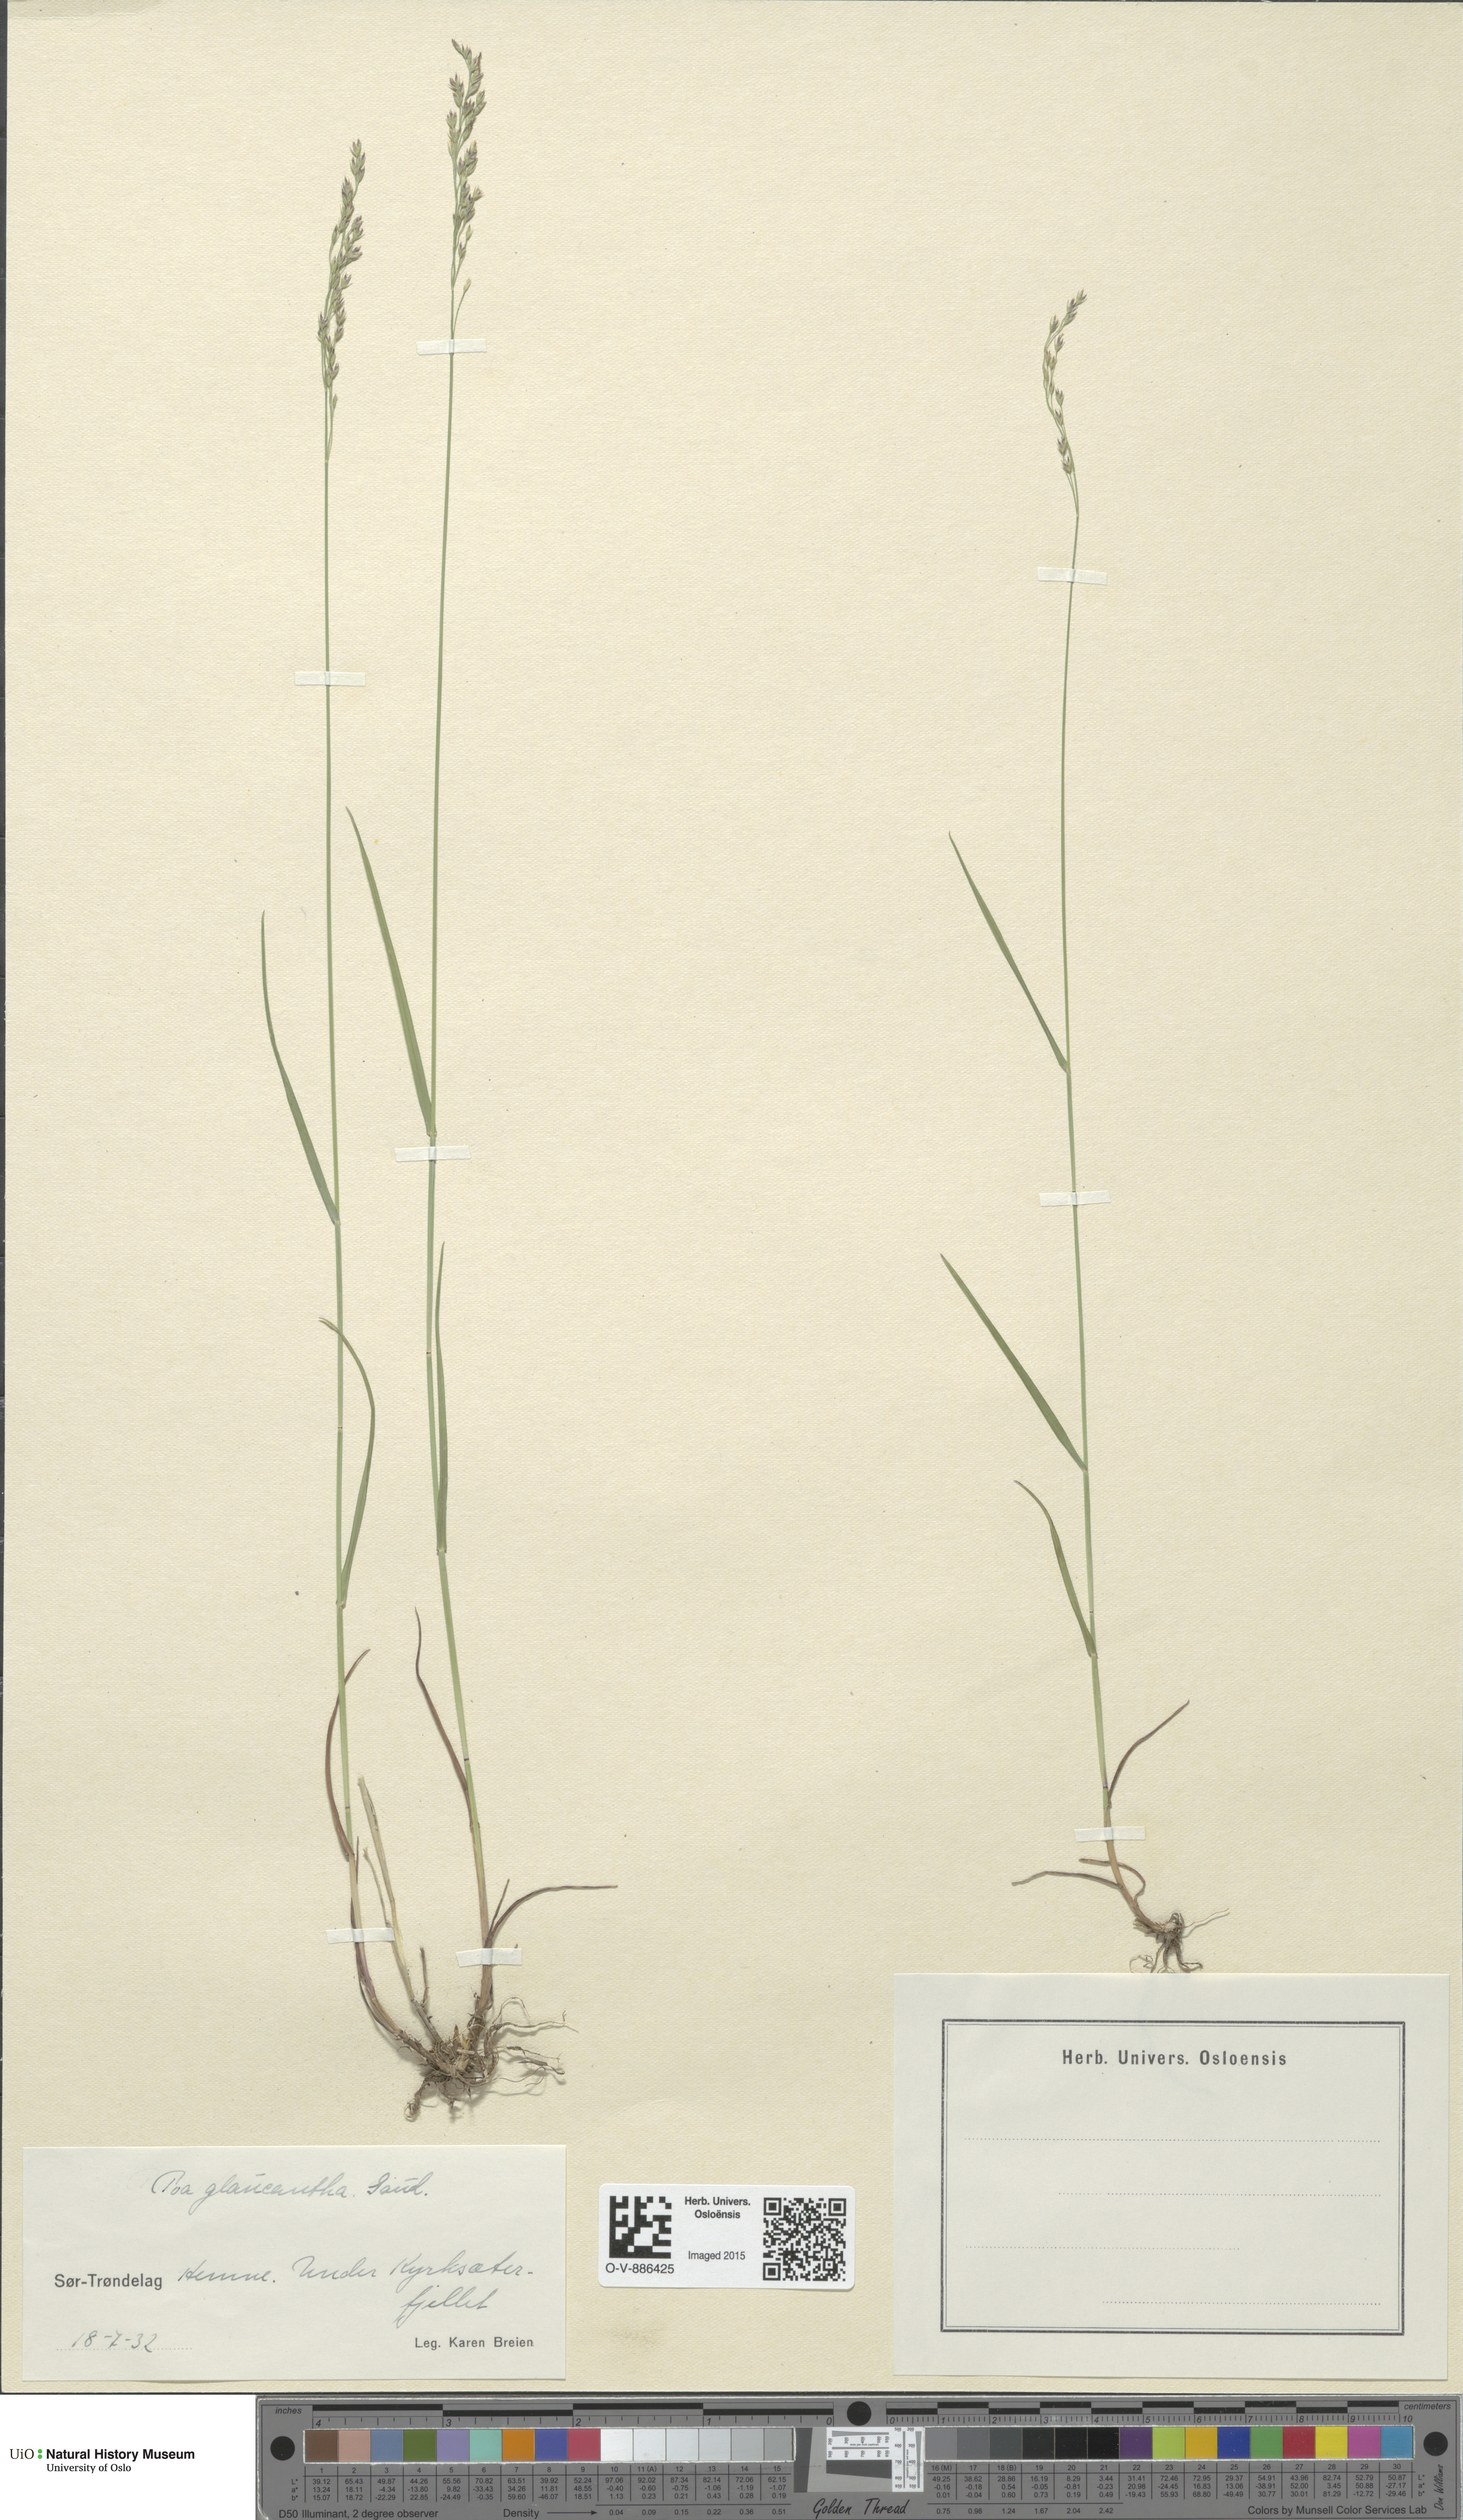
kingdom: Plantae
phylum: Tracheophyta
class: Liliopsida
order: Poales
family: Poaceae
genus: Poa
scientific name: Poa nemoralis
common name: Wood bluegrass
